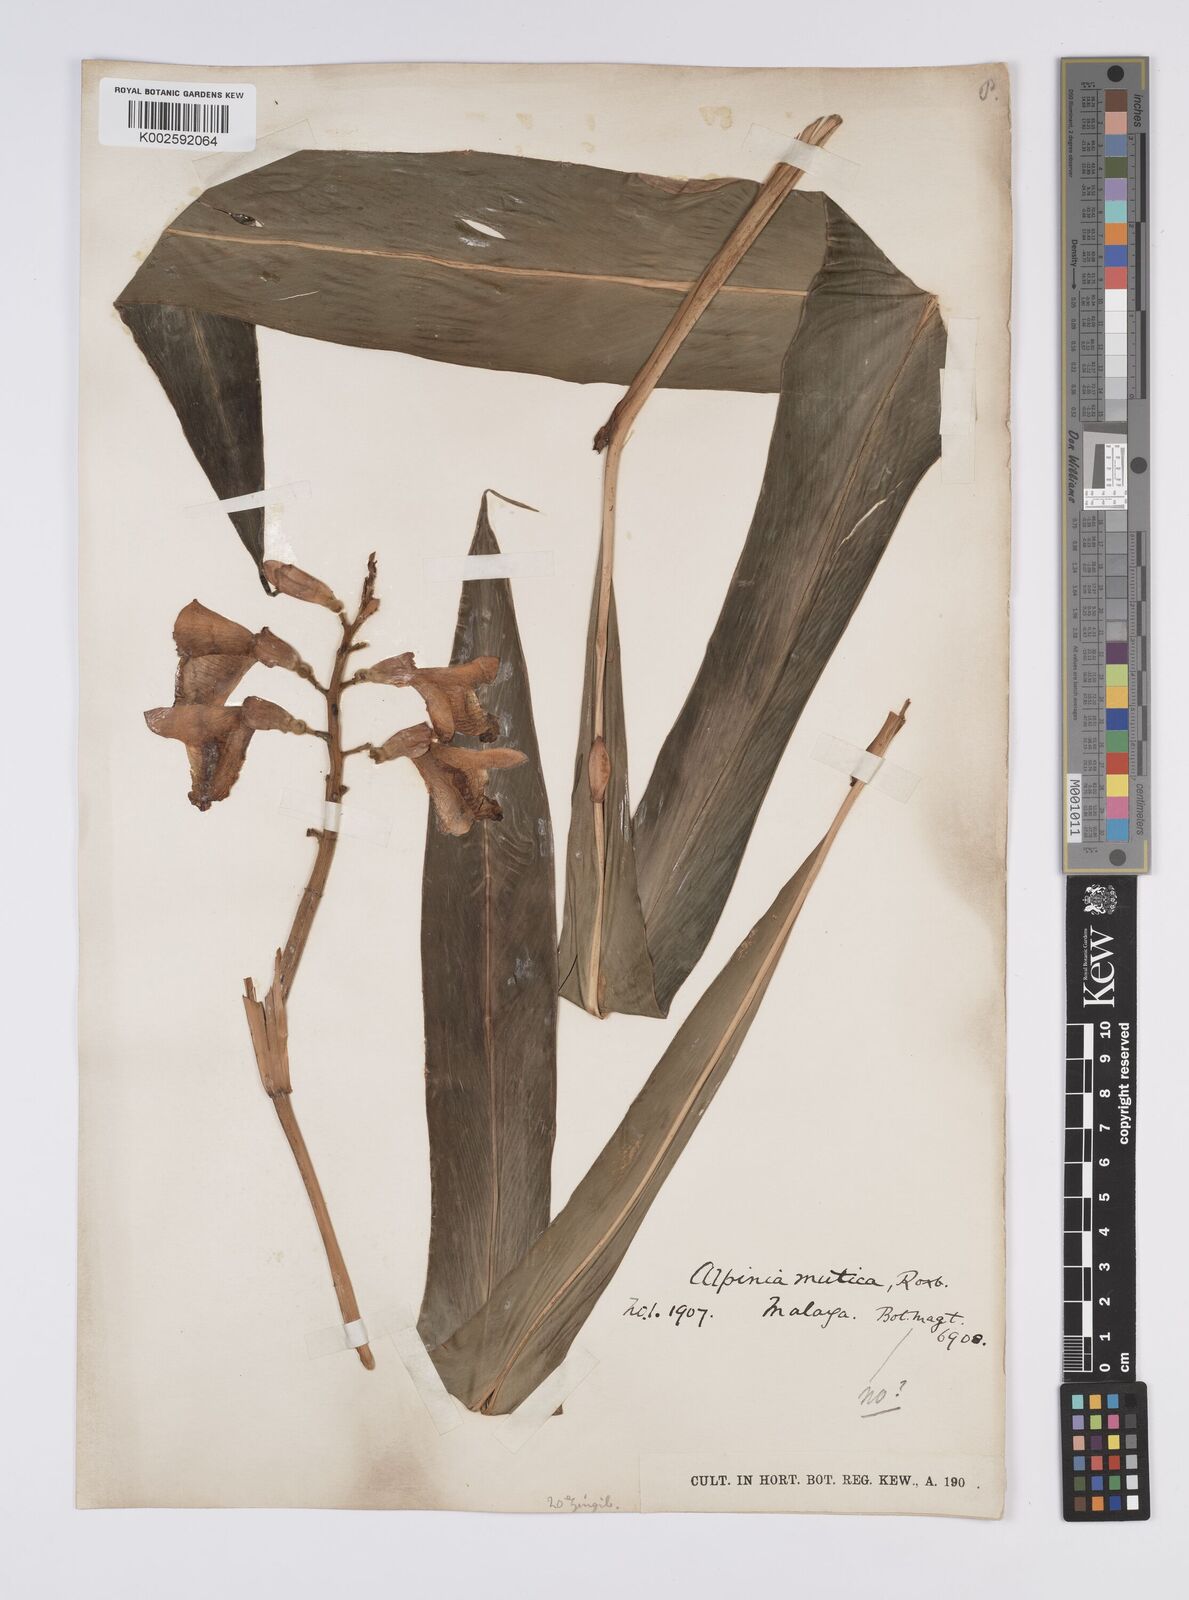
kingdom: Plantae
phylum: Tracheophyta
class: Liliopsida
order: Zingiberales
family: Zingiberaceae
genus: Alpinia
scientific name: Alpinia mutica
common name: Small shell ginger
